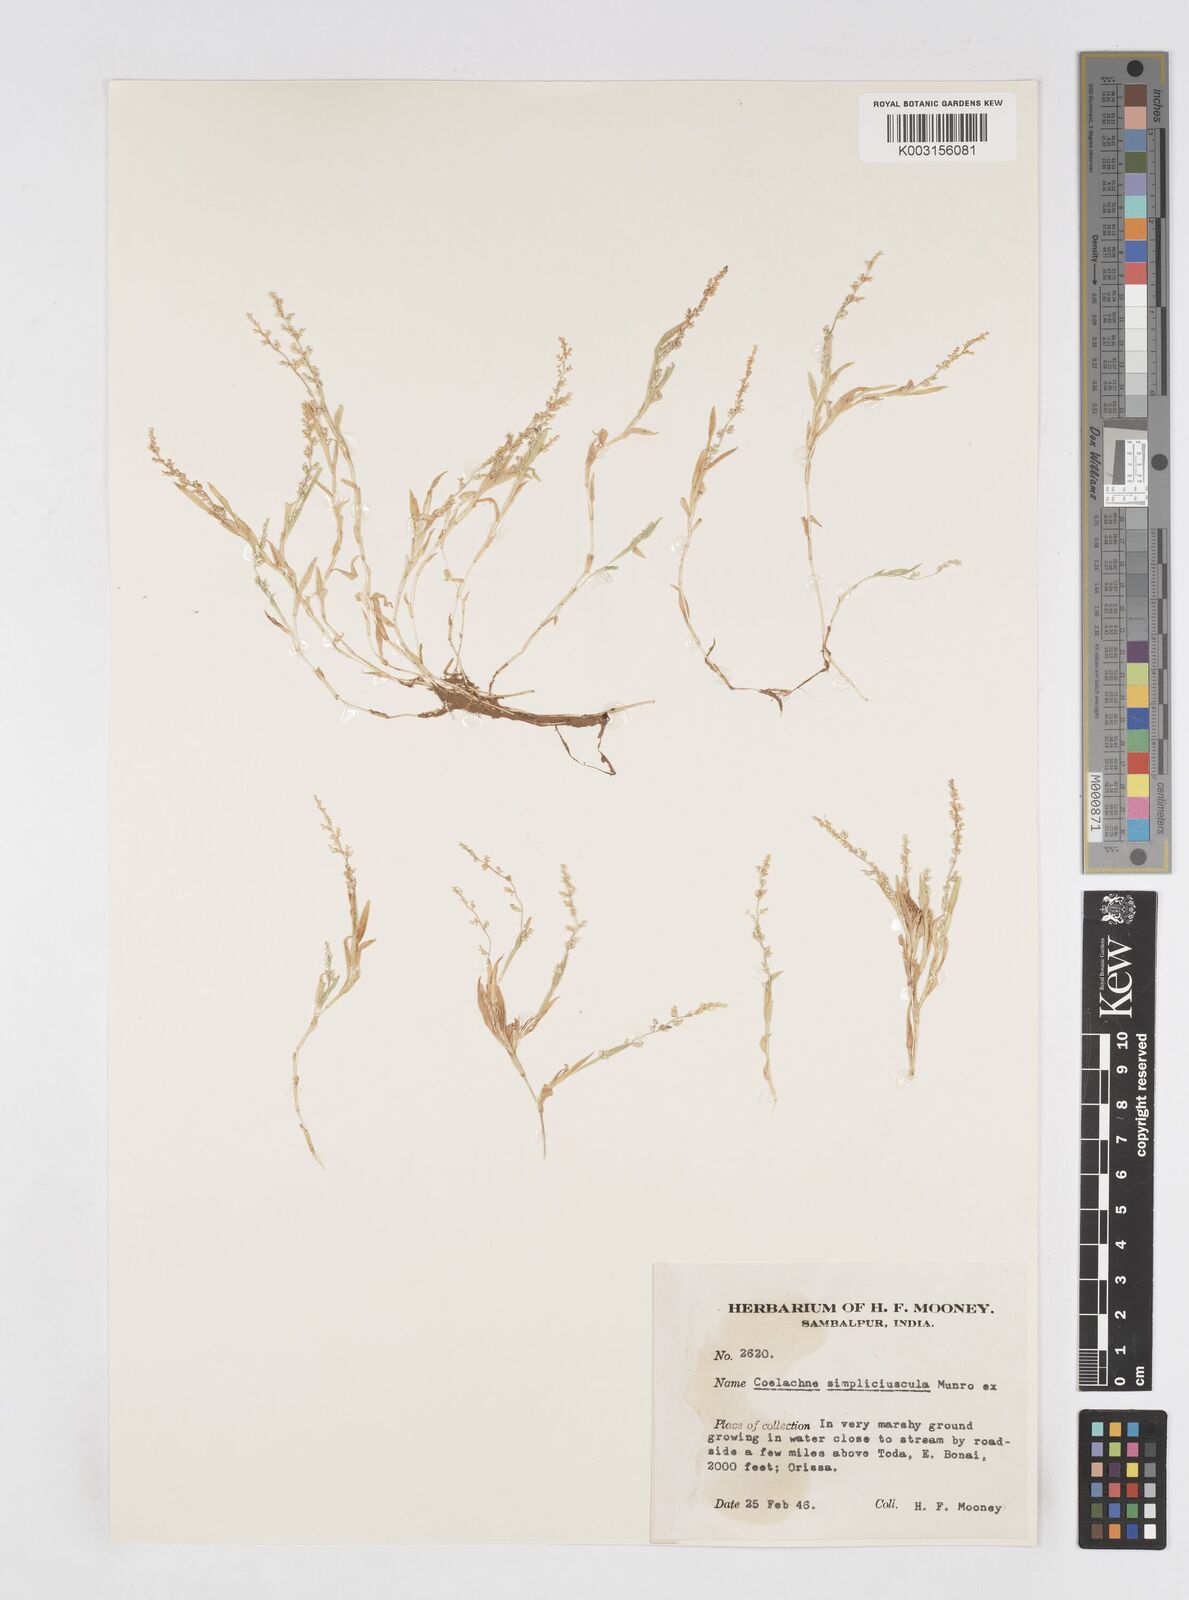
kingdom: Plantae
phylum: Tracheophyta
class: Liliopsida
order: Poales
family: Poaceae
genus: Coelachne
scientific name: Coelachne simpliciuscula
